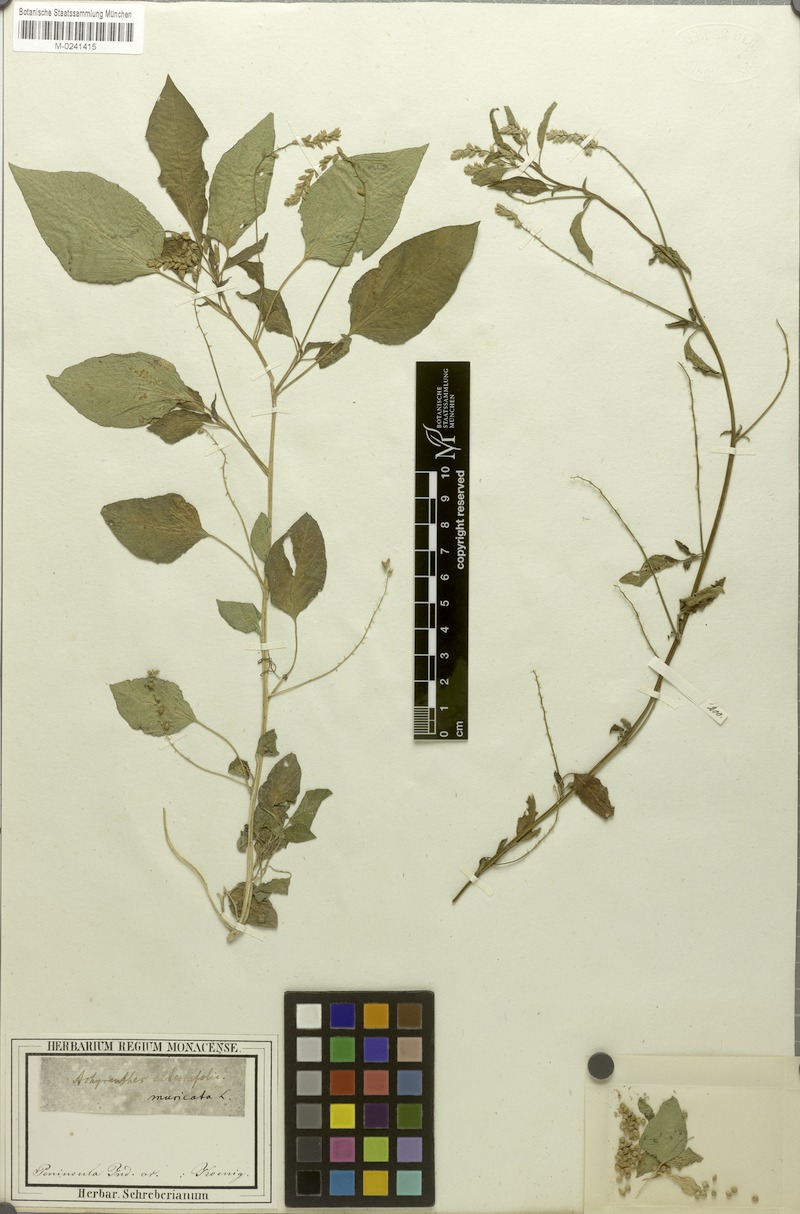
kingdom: Plantae
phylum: Tracheophyta
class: Magnoliopsida
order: Caryophyllales
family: Amaranthaceae
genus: Digera
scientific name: Digera muricata
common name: False amaranth
